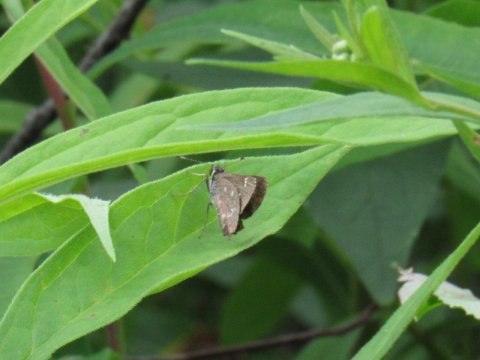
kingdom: Animalia
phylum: Arthropoda
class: Insecta
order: Lepidoptera
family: Hesperiidae
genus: Mastor
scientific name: Mastor hegon
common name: Pepper and Salt Skipper
